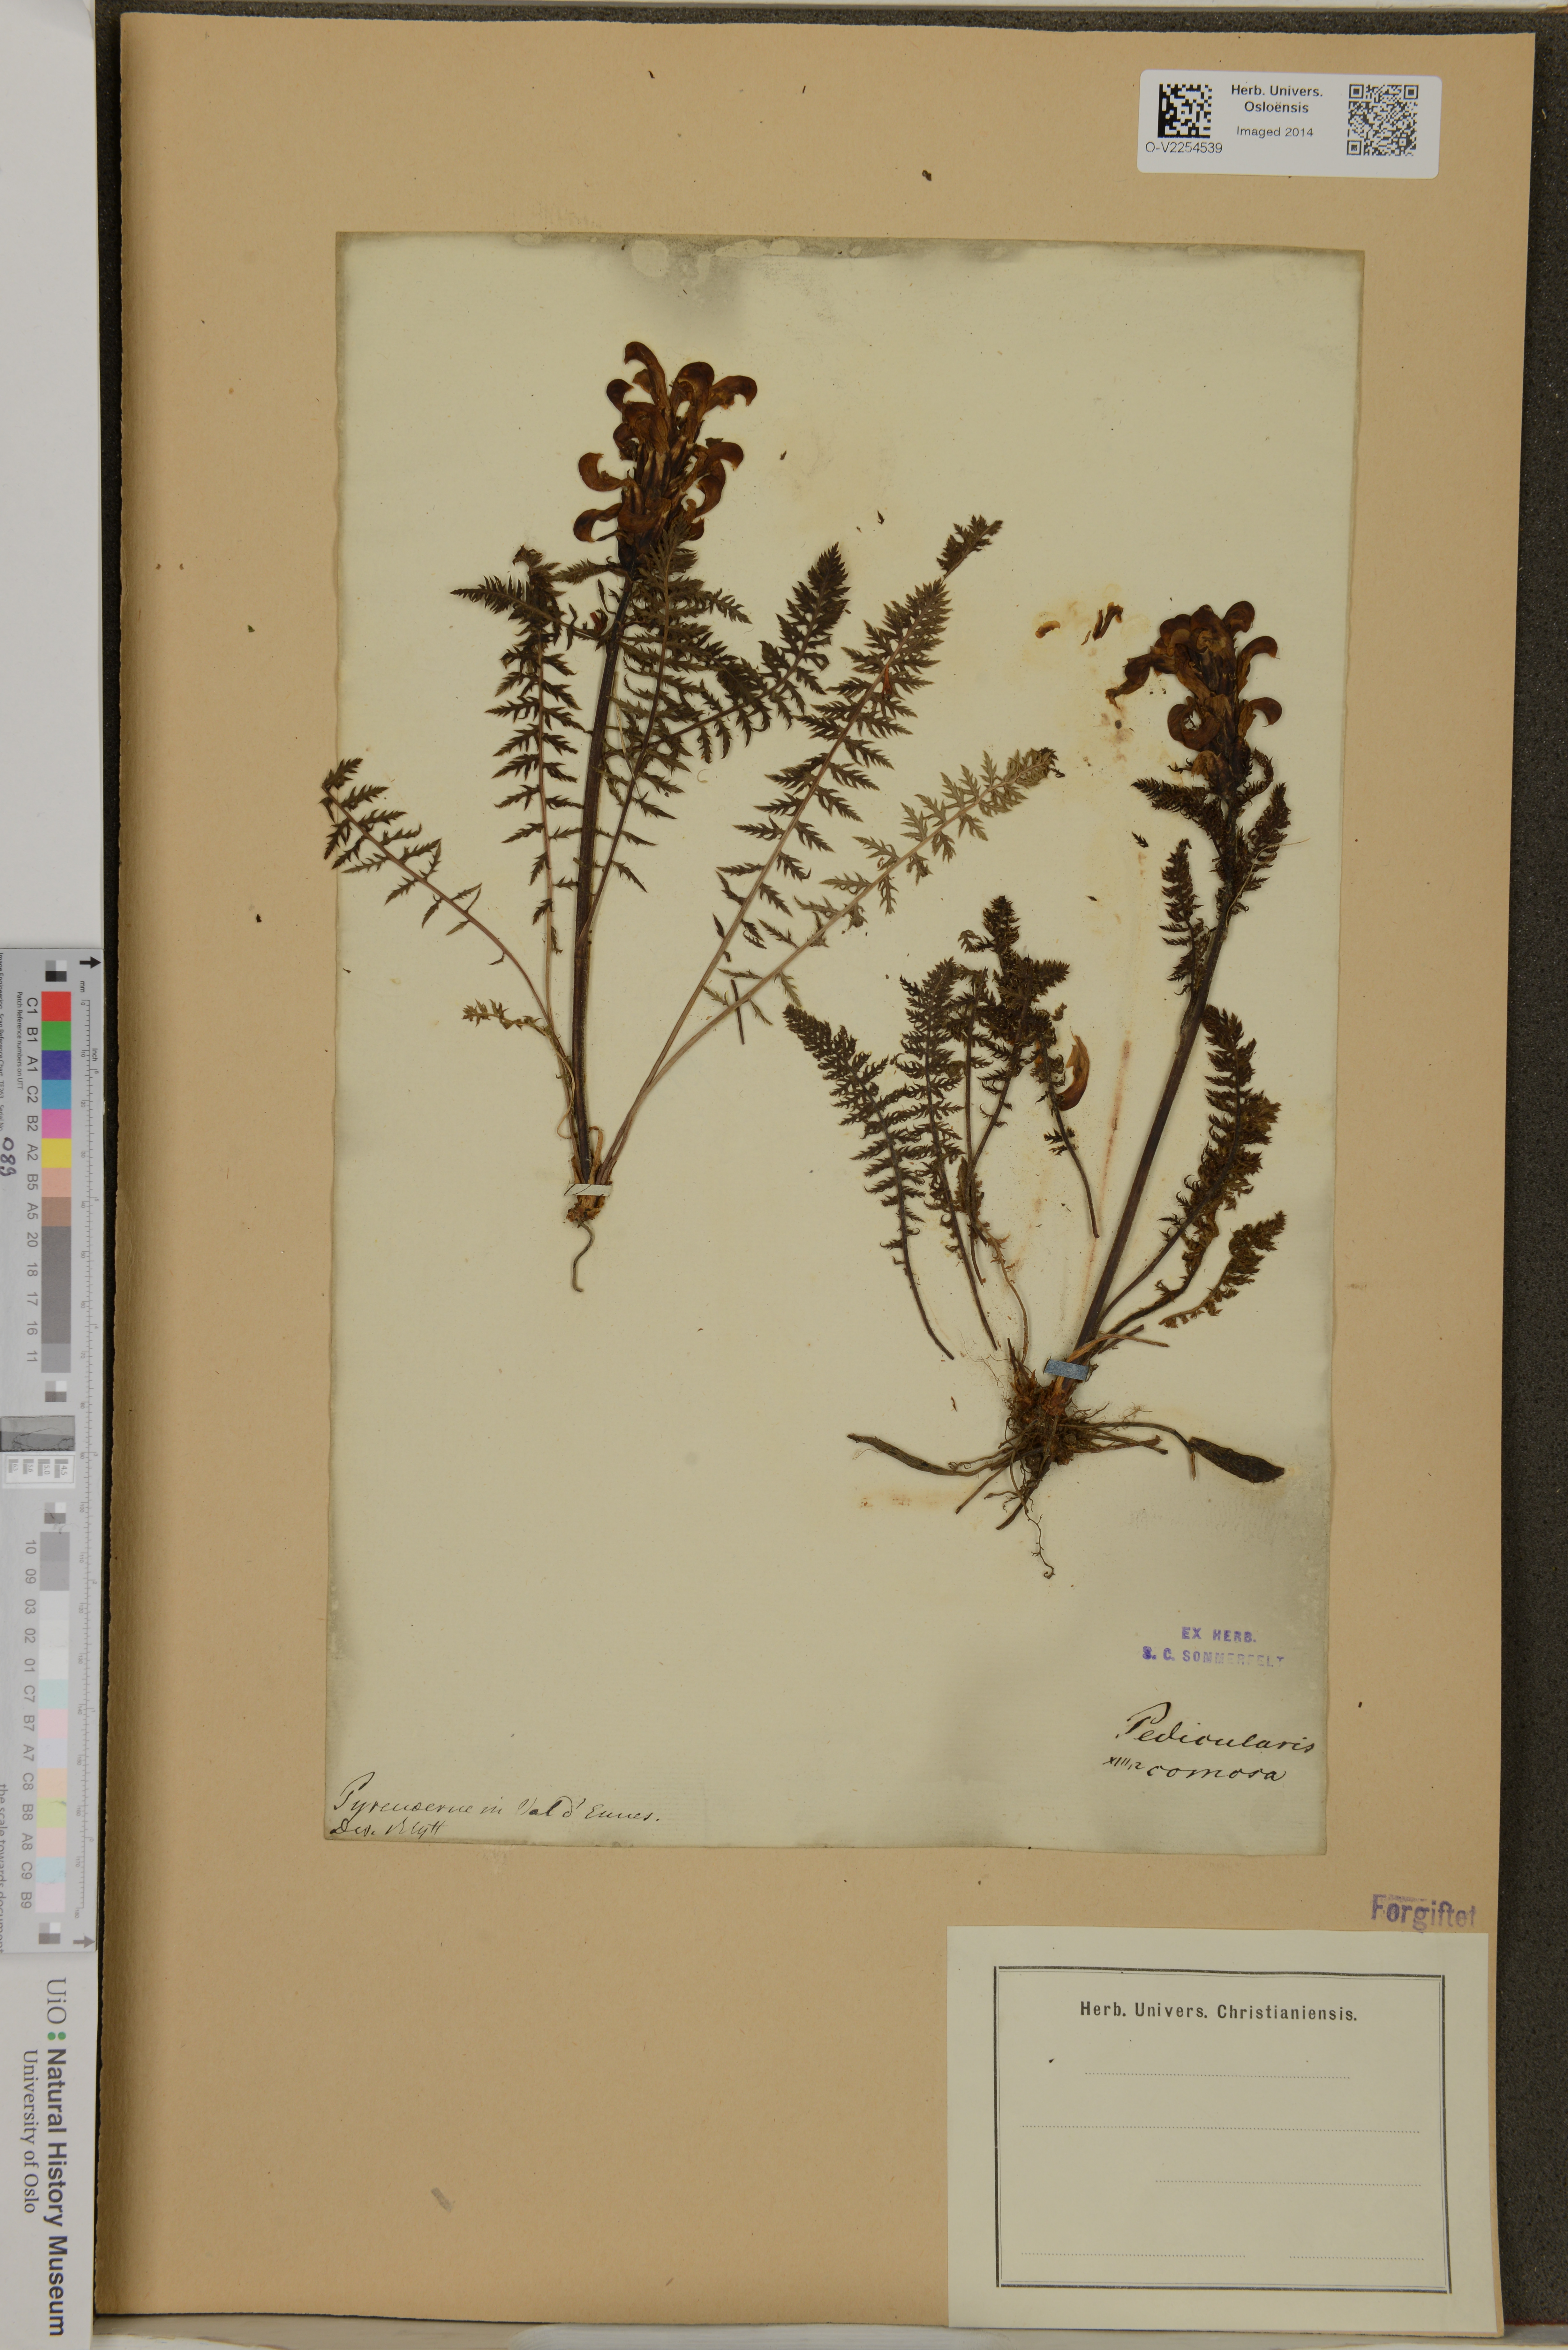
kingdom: Plantae
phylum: Tracheophyta
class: Magnoliopsida
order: Lamiales
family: Orobanchaceae
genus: Pedicularis
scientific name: Pedicularis comosa
